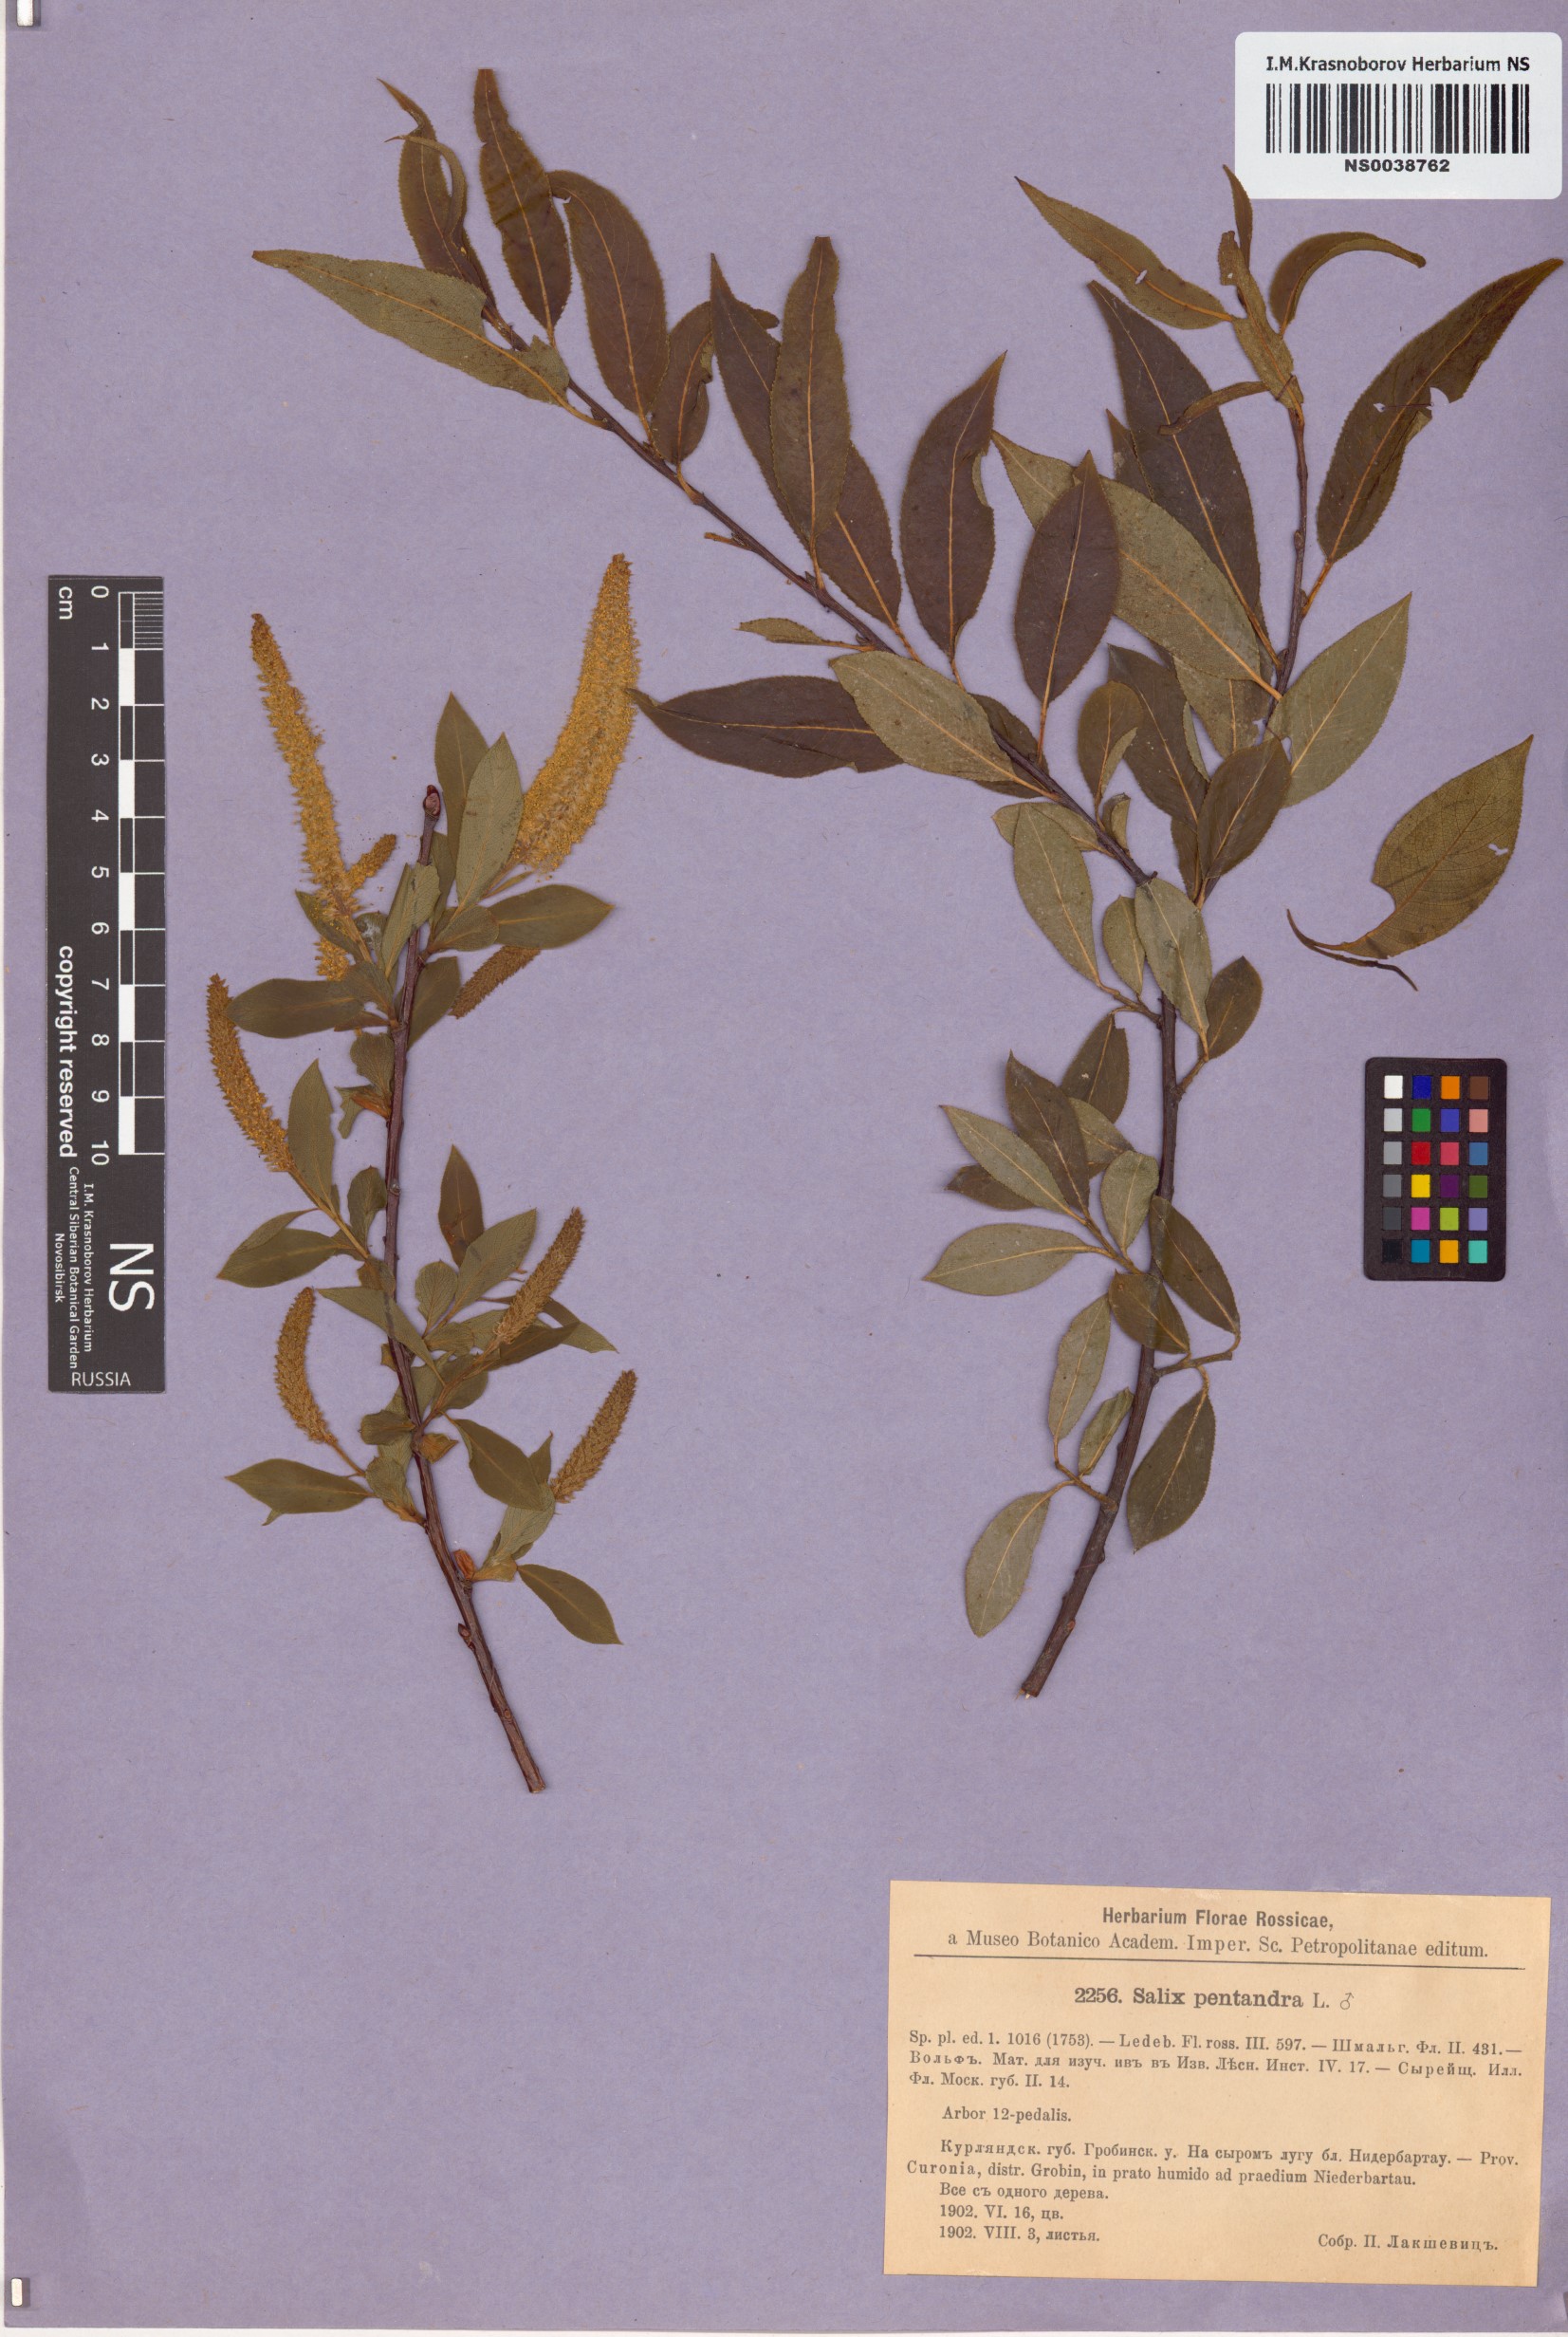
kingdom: Plantae
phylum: Tracheophyta
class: Magnoliopsida
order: Malpighiales
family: Salicaceae
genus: Salix
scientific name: Salix pentandra
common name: Bay willow
